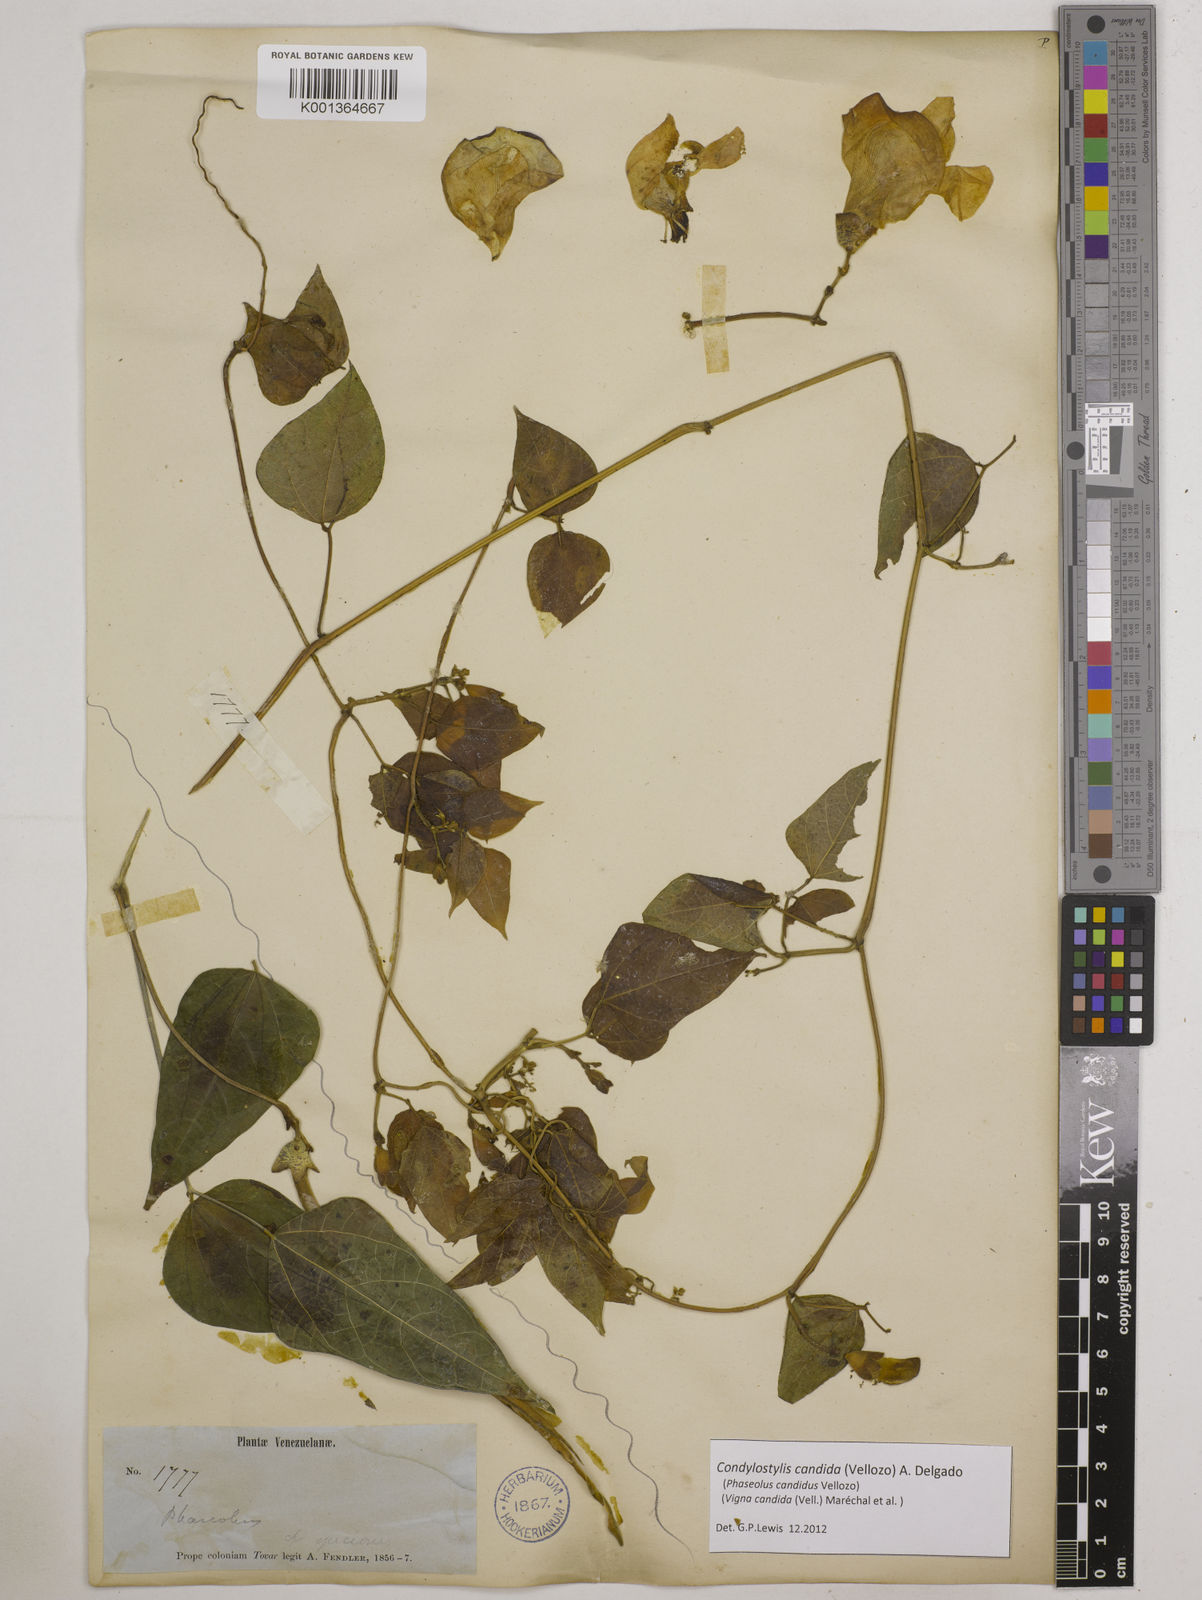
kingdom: Plantae
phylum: Tracheophyta
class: Magnoliopsida
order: Fabales
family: Fabaceae
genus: Condylostylis
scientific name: Condylostylis candida
